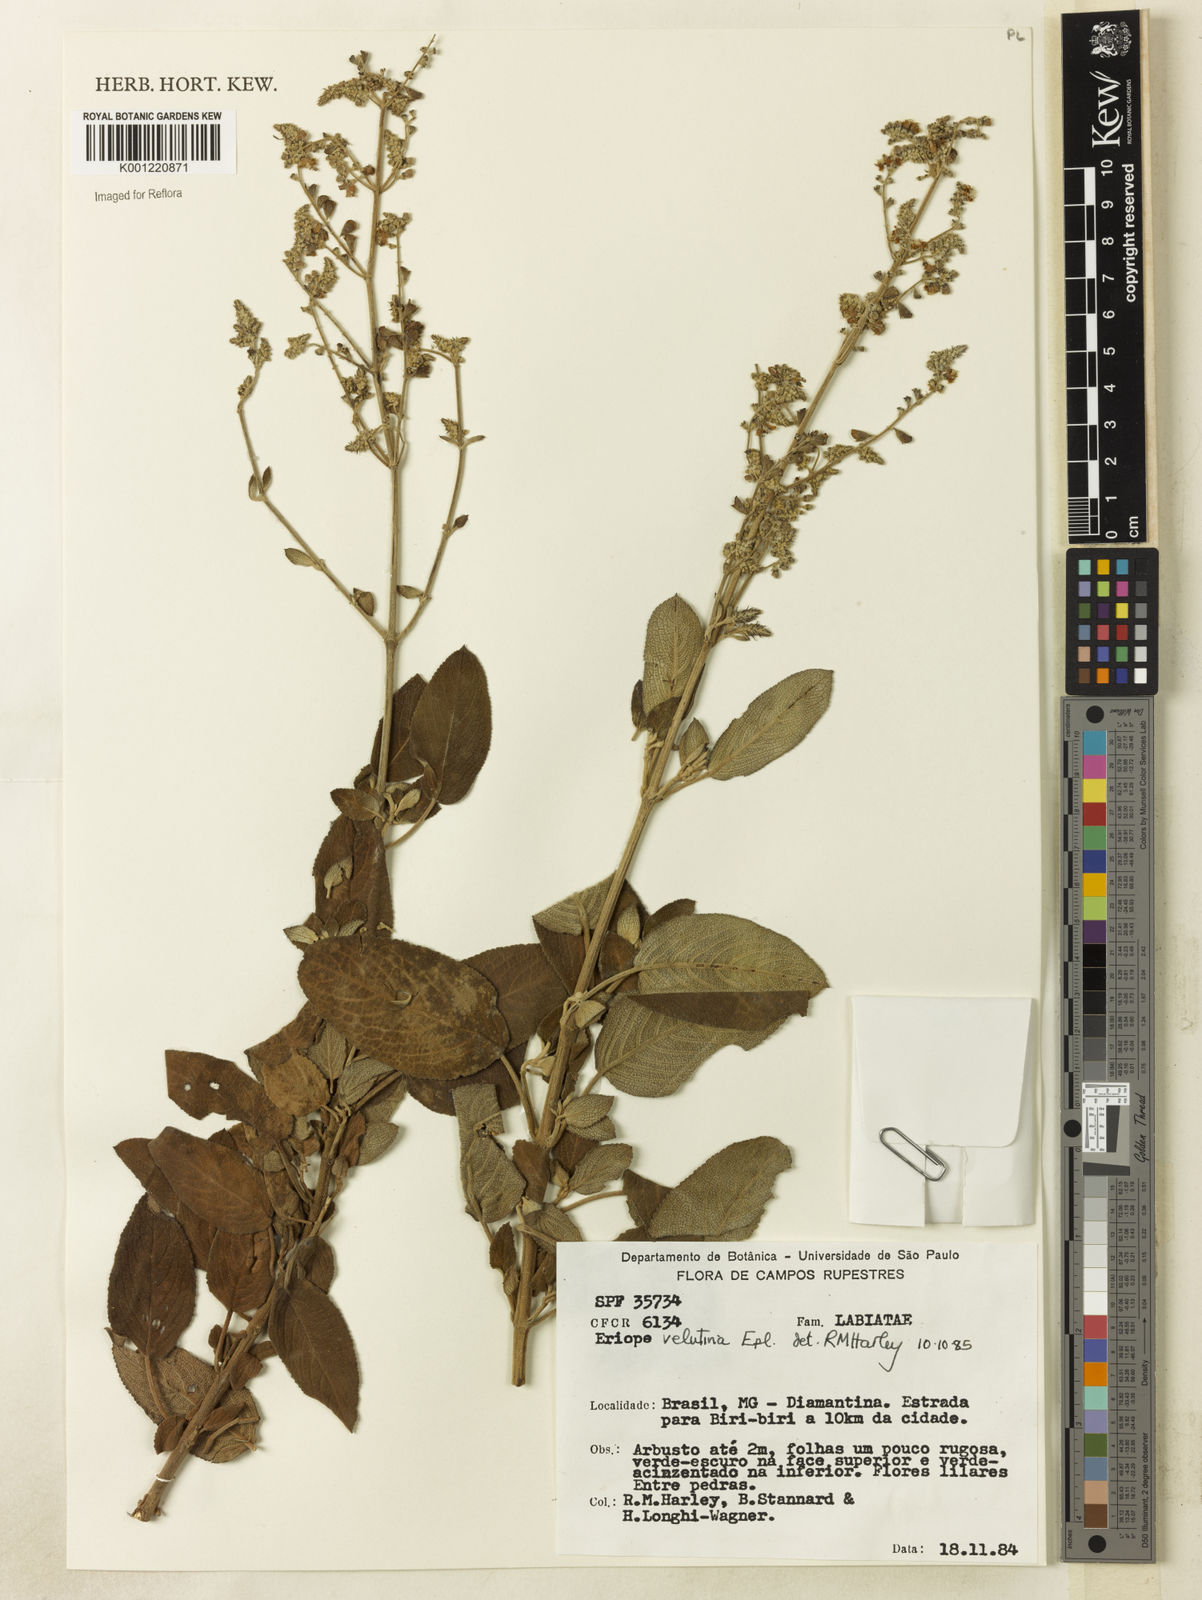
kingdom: Plantae
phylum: Tracheophyta
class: Magnoliopsida
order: Lamiales
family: Lamiaceae
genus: Eriope
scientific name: Eriope velutina
